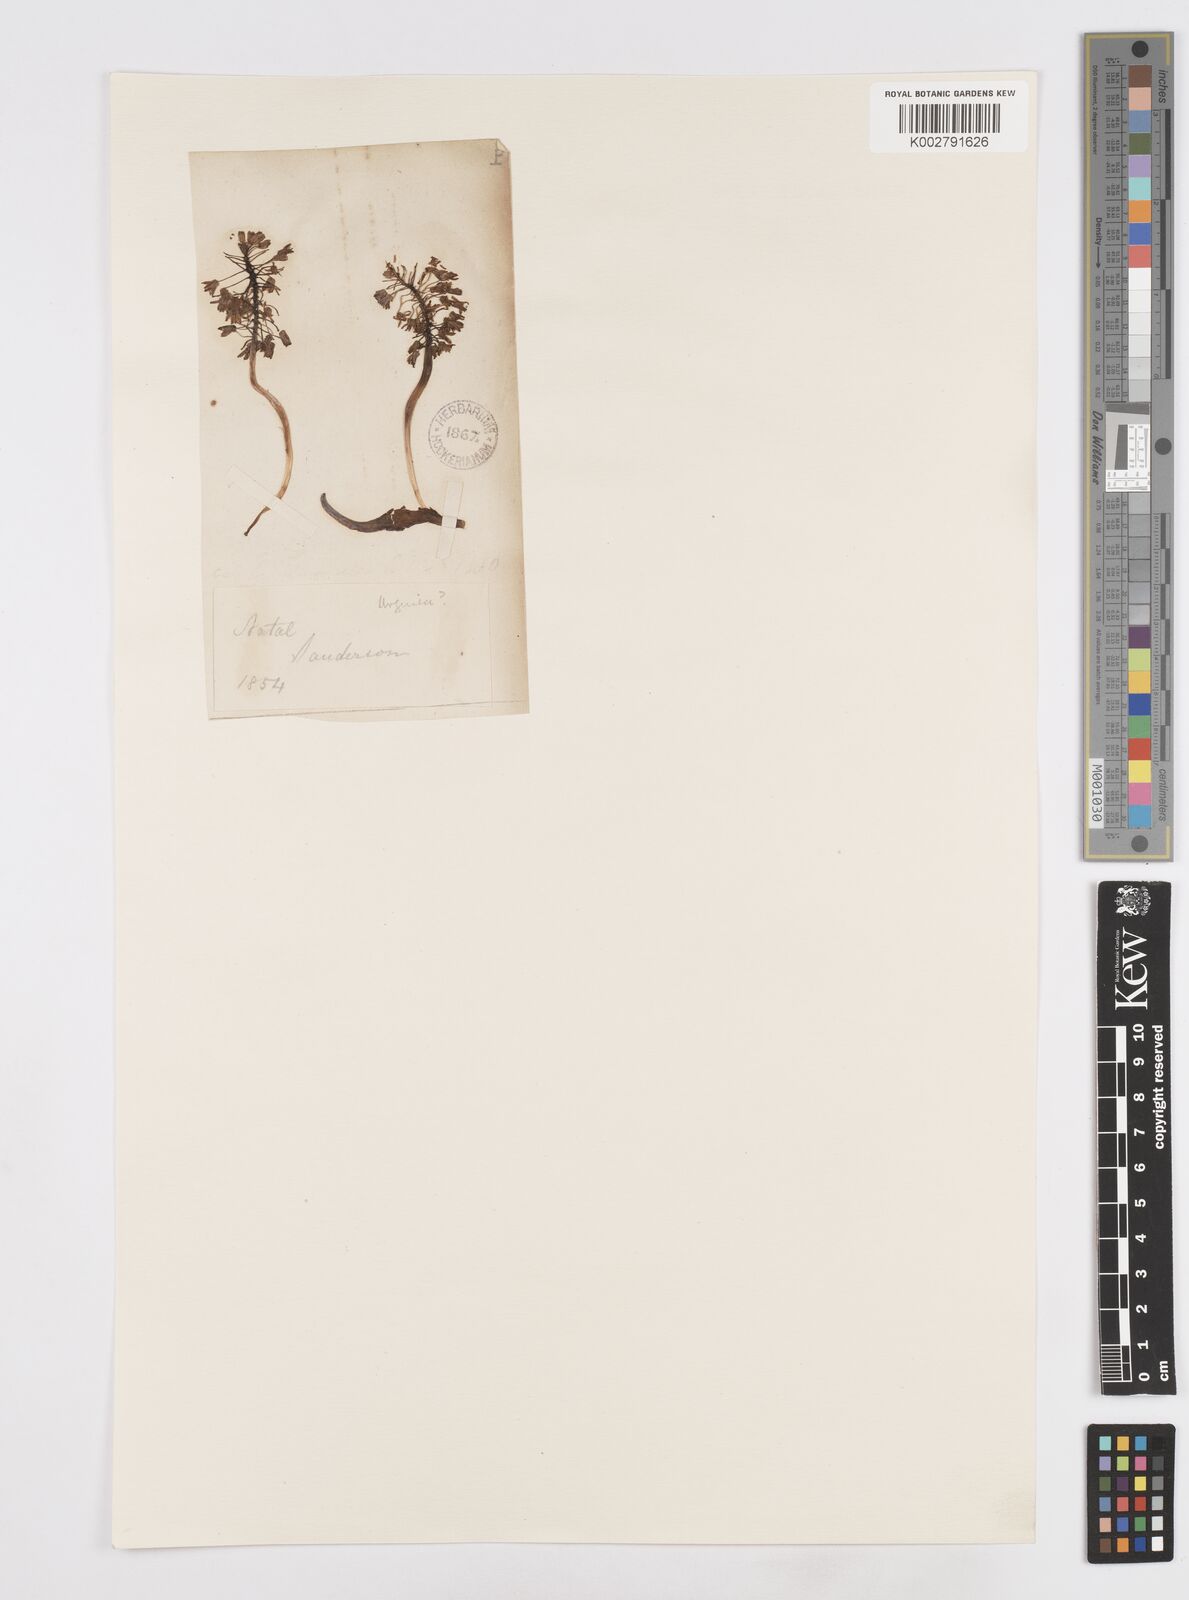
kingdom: Plantae
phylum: Tracheophyta
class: Liliopsida
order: Asparagales
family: Asparagaceae
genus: Scilla
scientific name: Scilla
